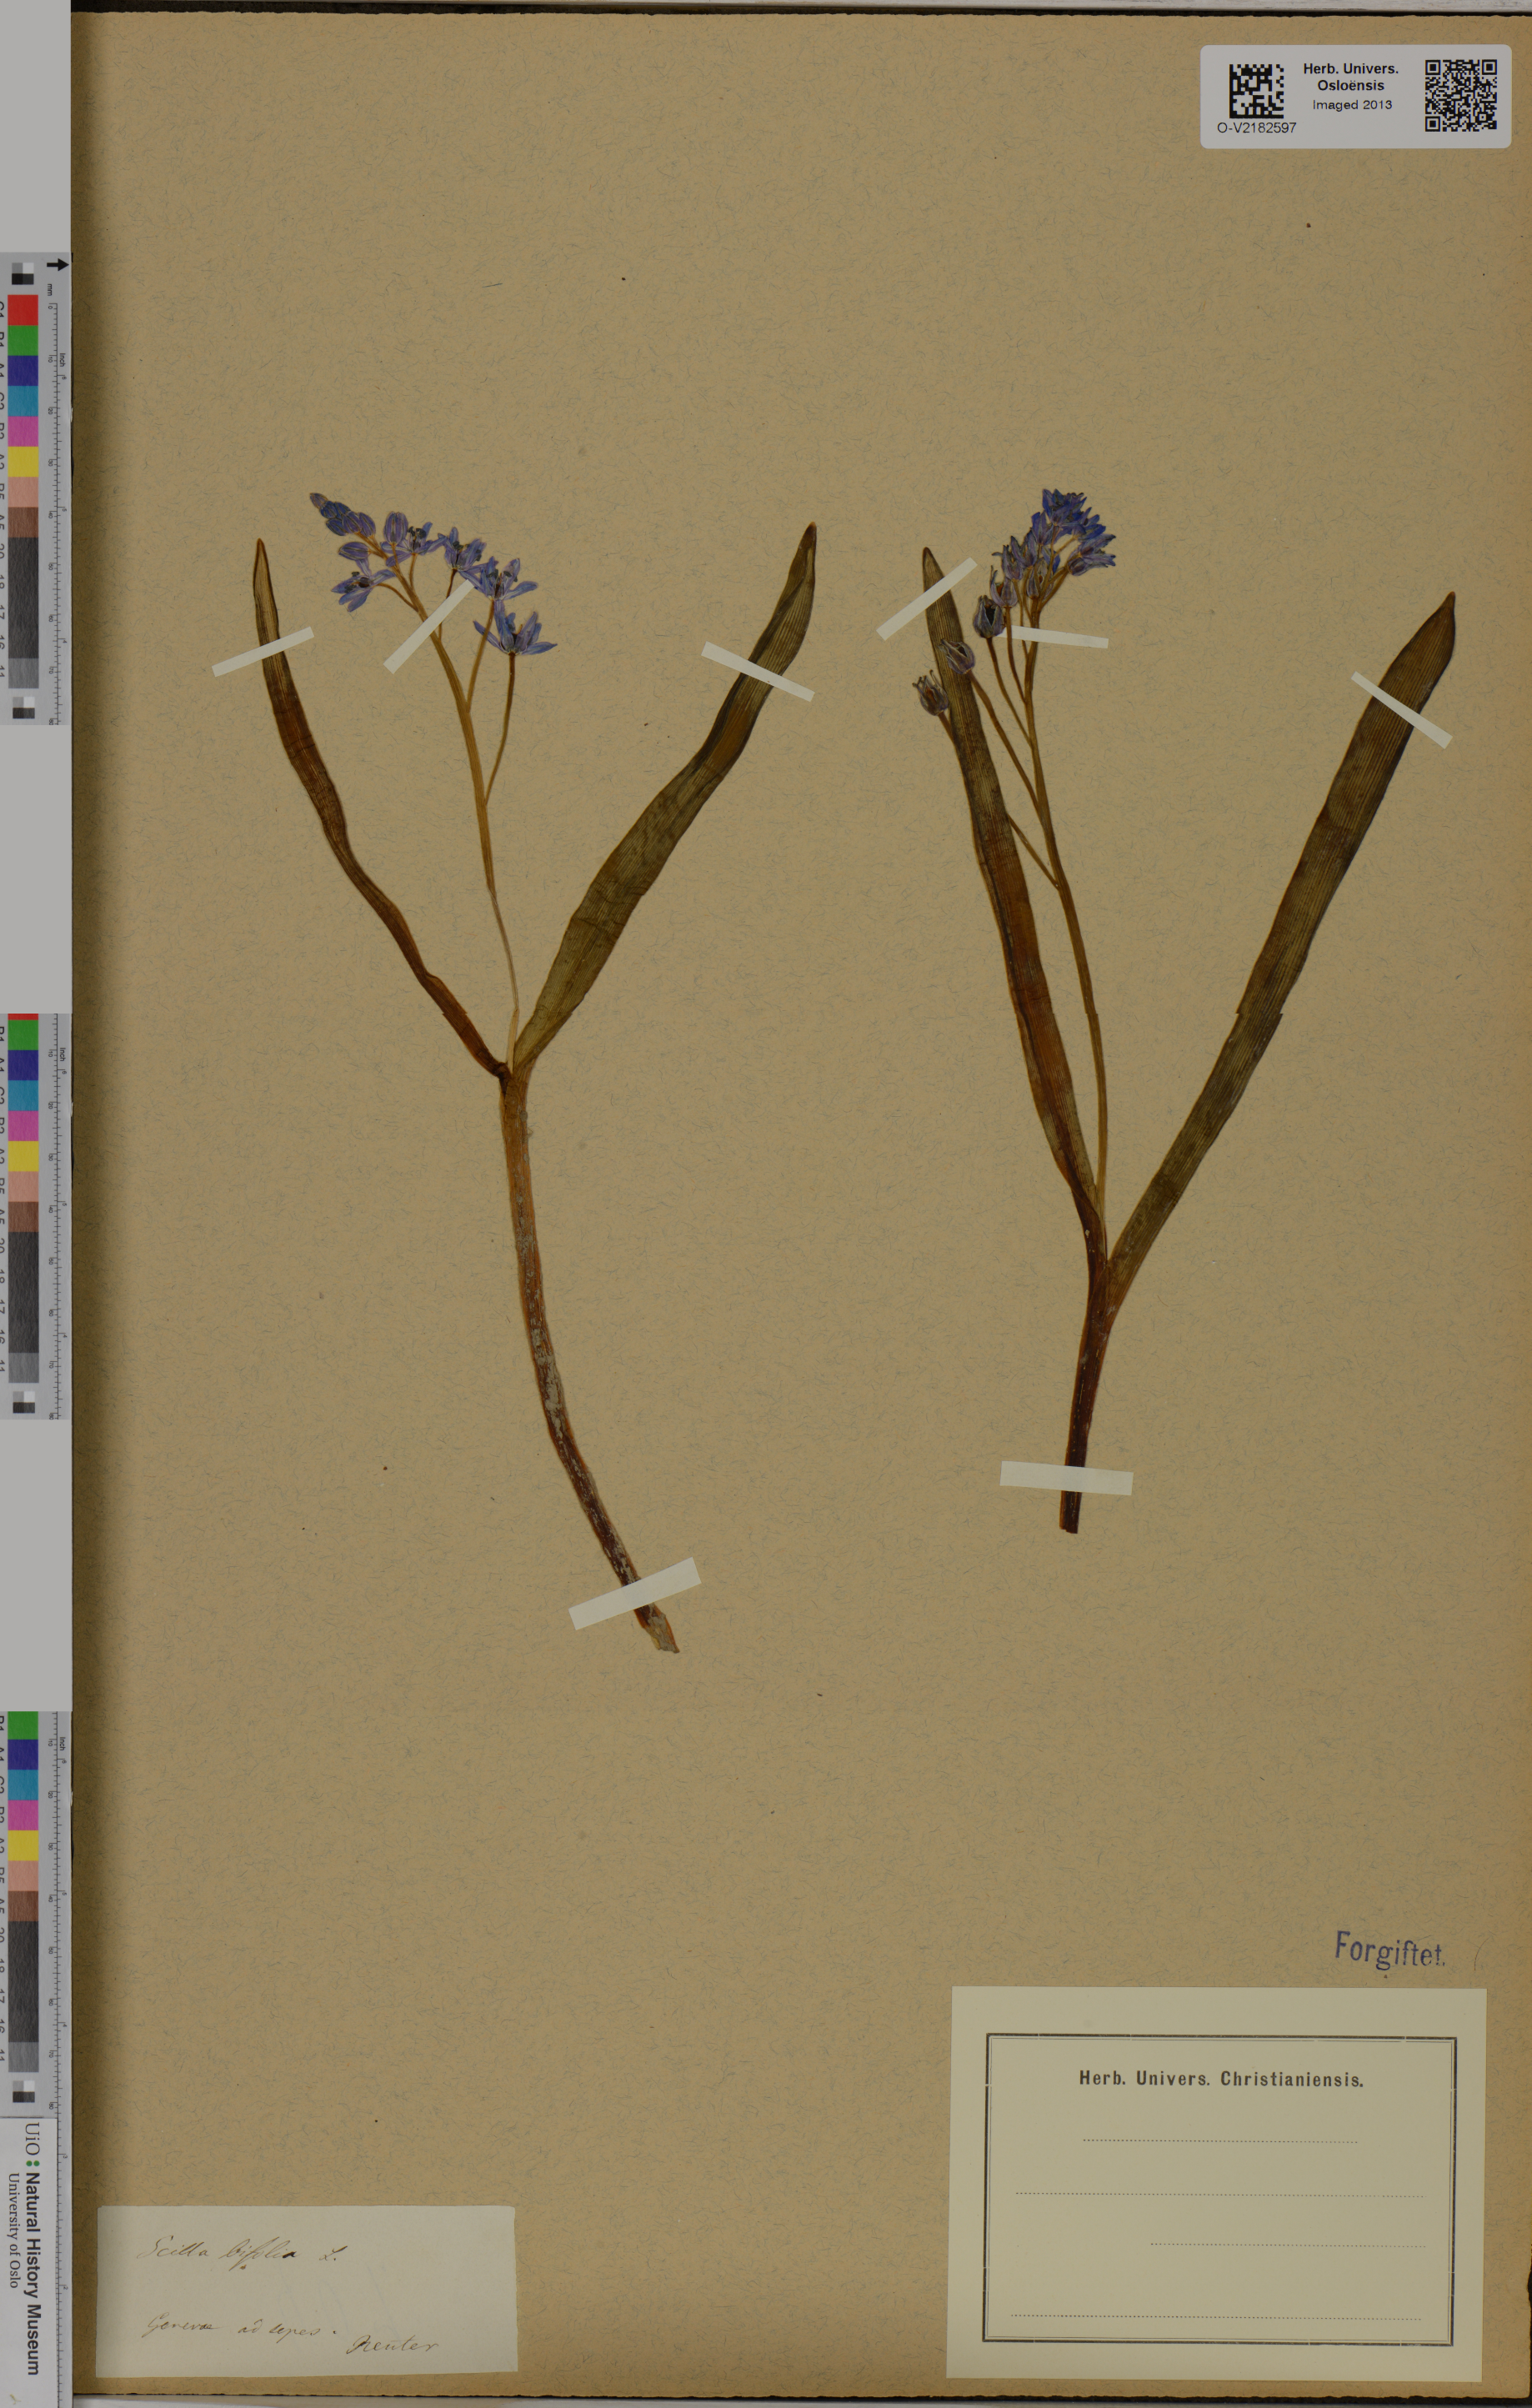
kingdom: Plantae
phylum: Tracheophyta
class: Liliopsida
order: Asparagales
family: Asparagaceae
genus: Scilla
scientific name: Scilla bifolia
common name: Alpine squill
